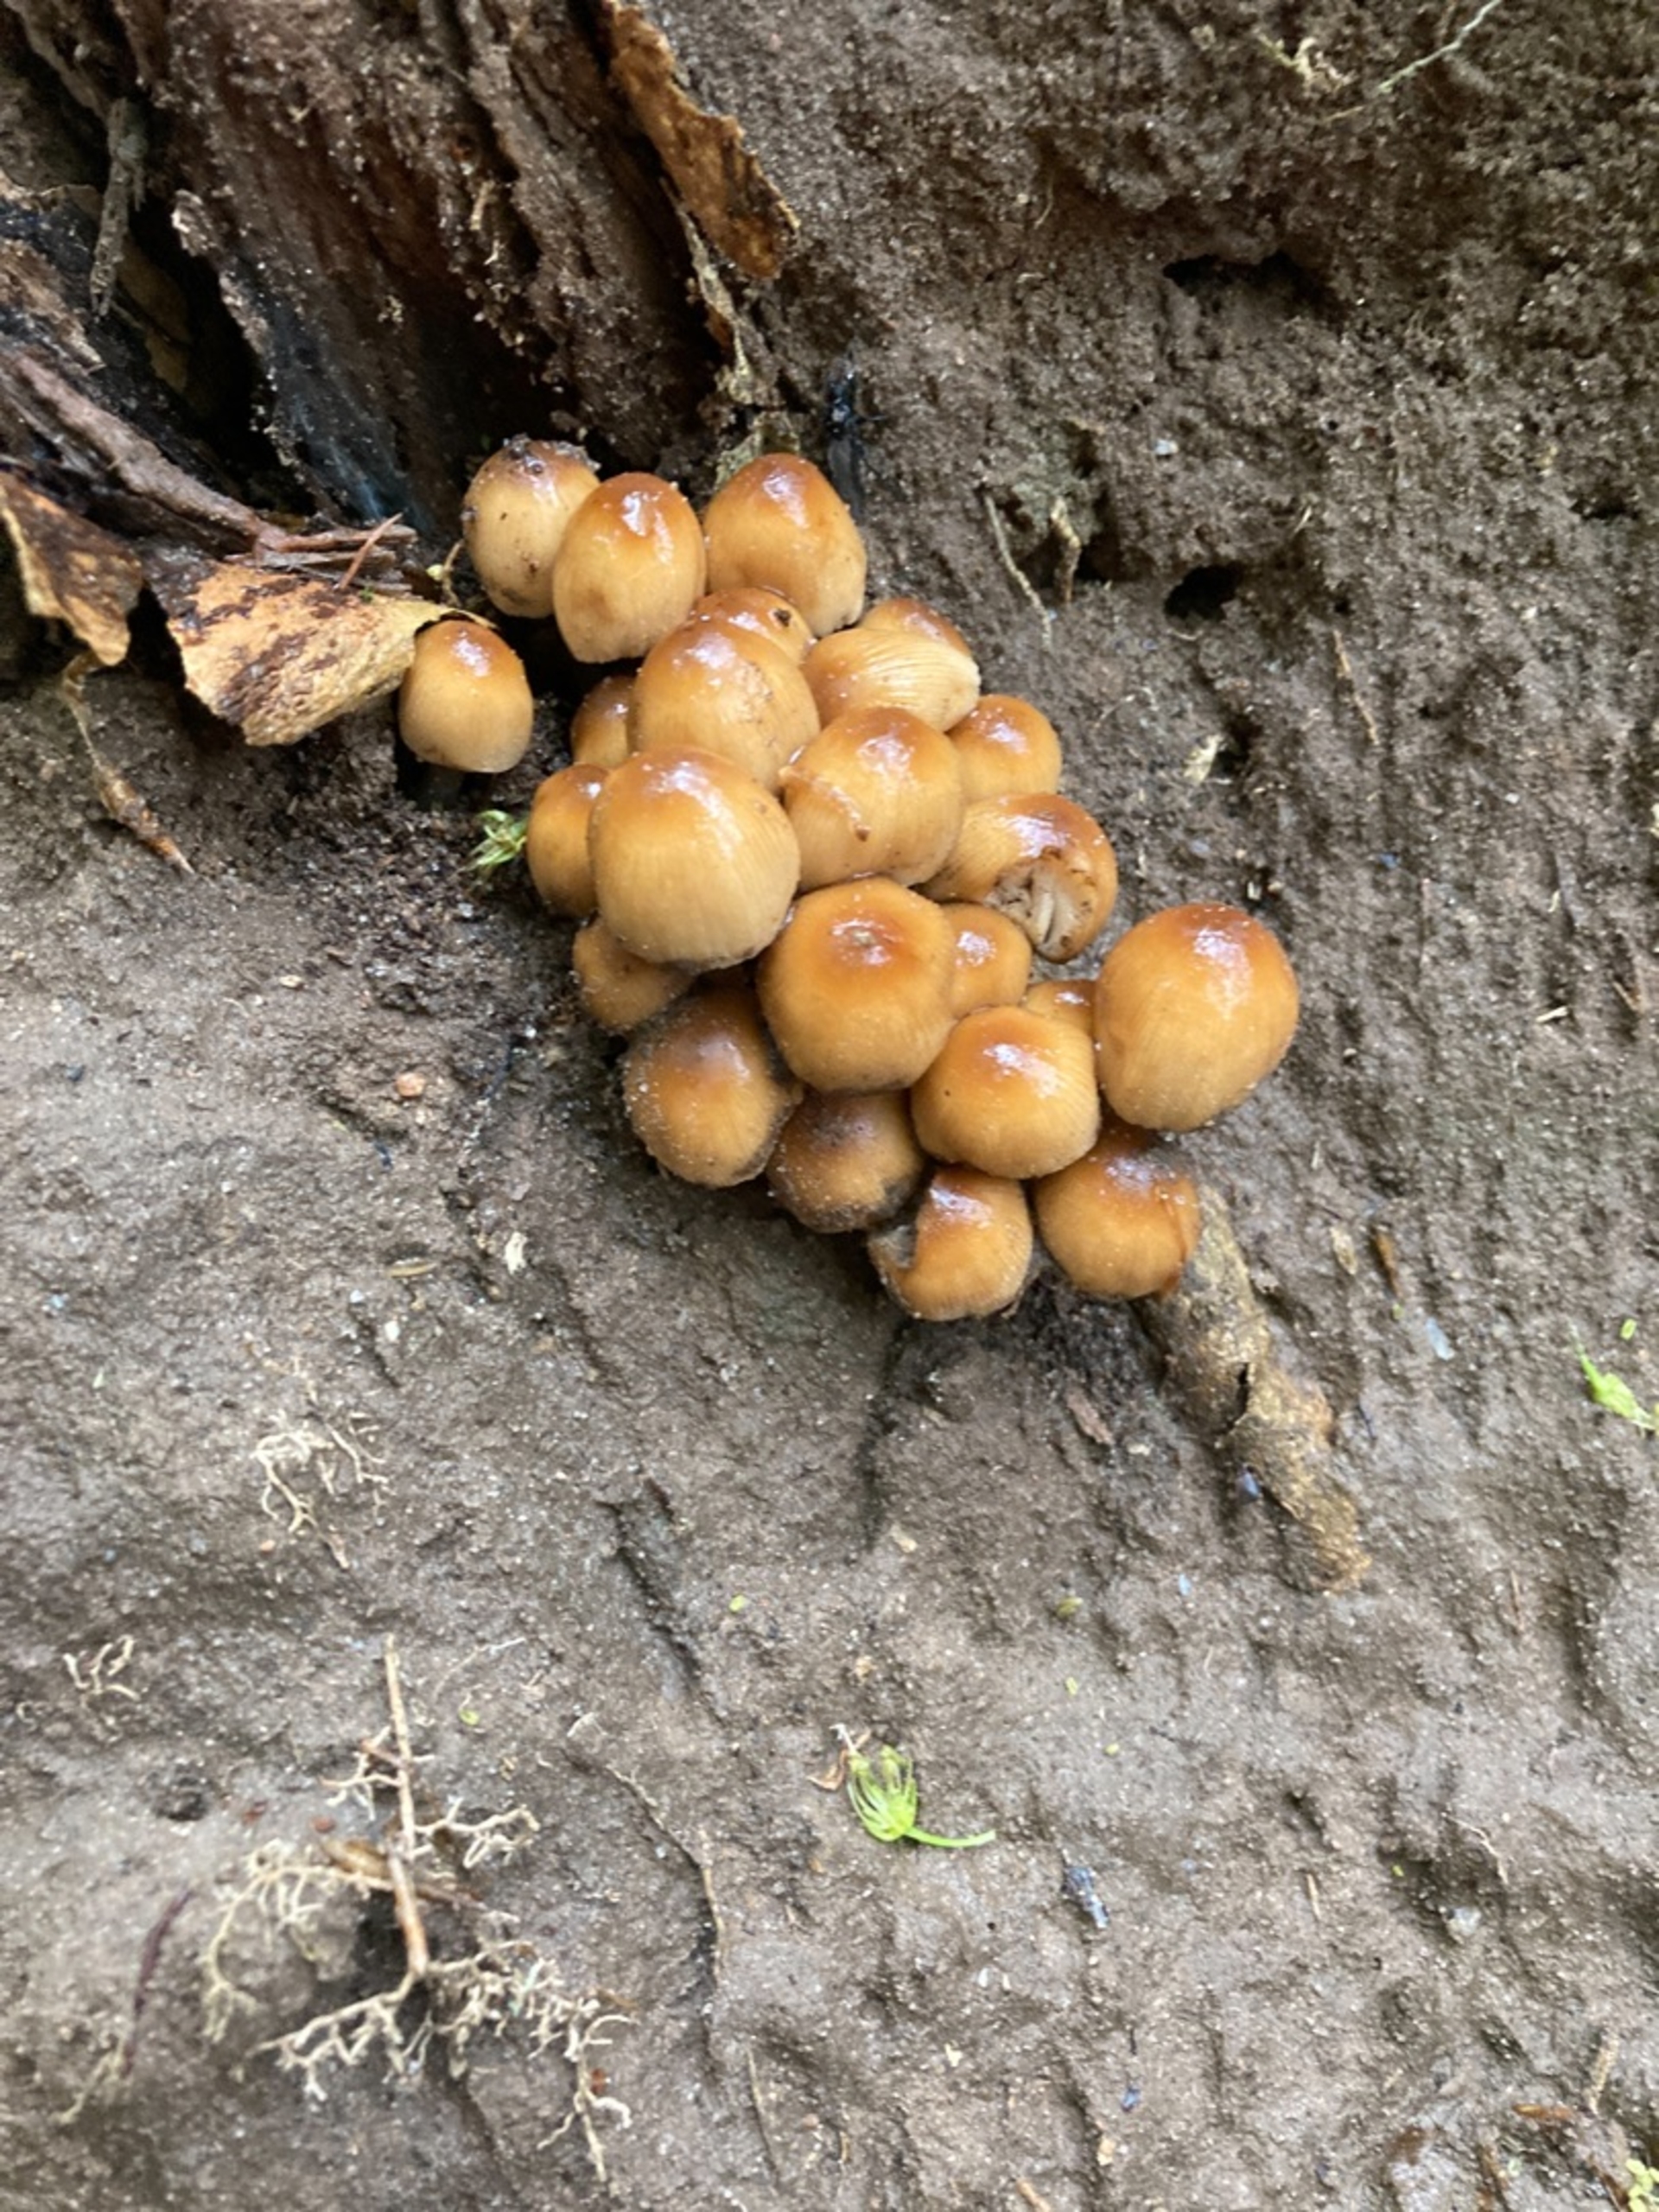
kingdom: Fungi
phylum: Basidiomycota
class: Agaricomycetes
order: Agaricales
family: Psathyrellaceae
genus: Coprinellus
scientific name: Coprinellus
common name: Blækhat
